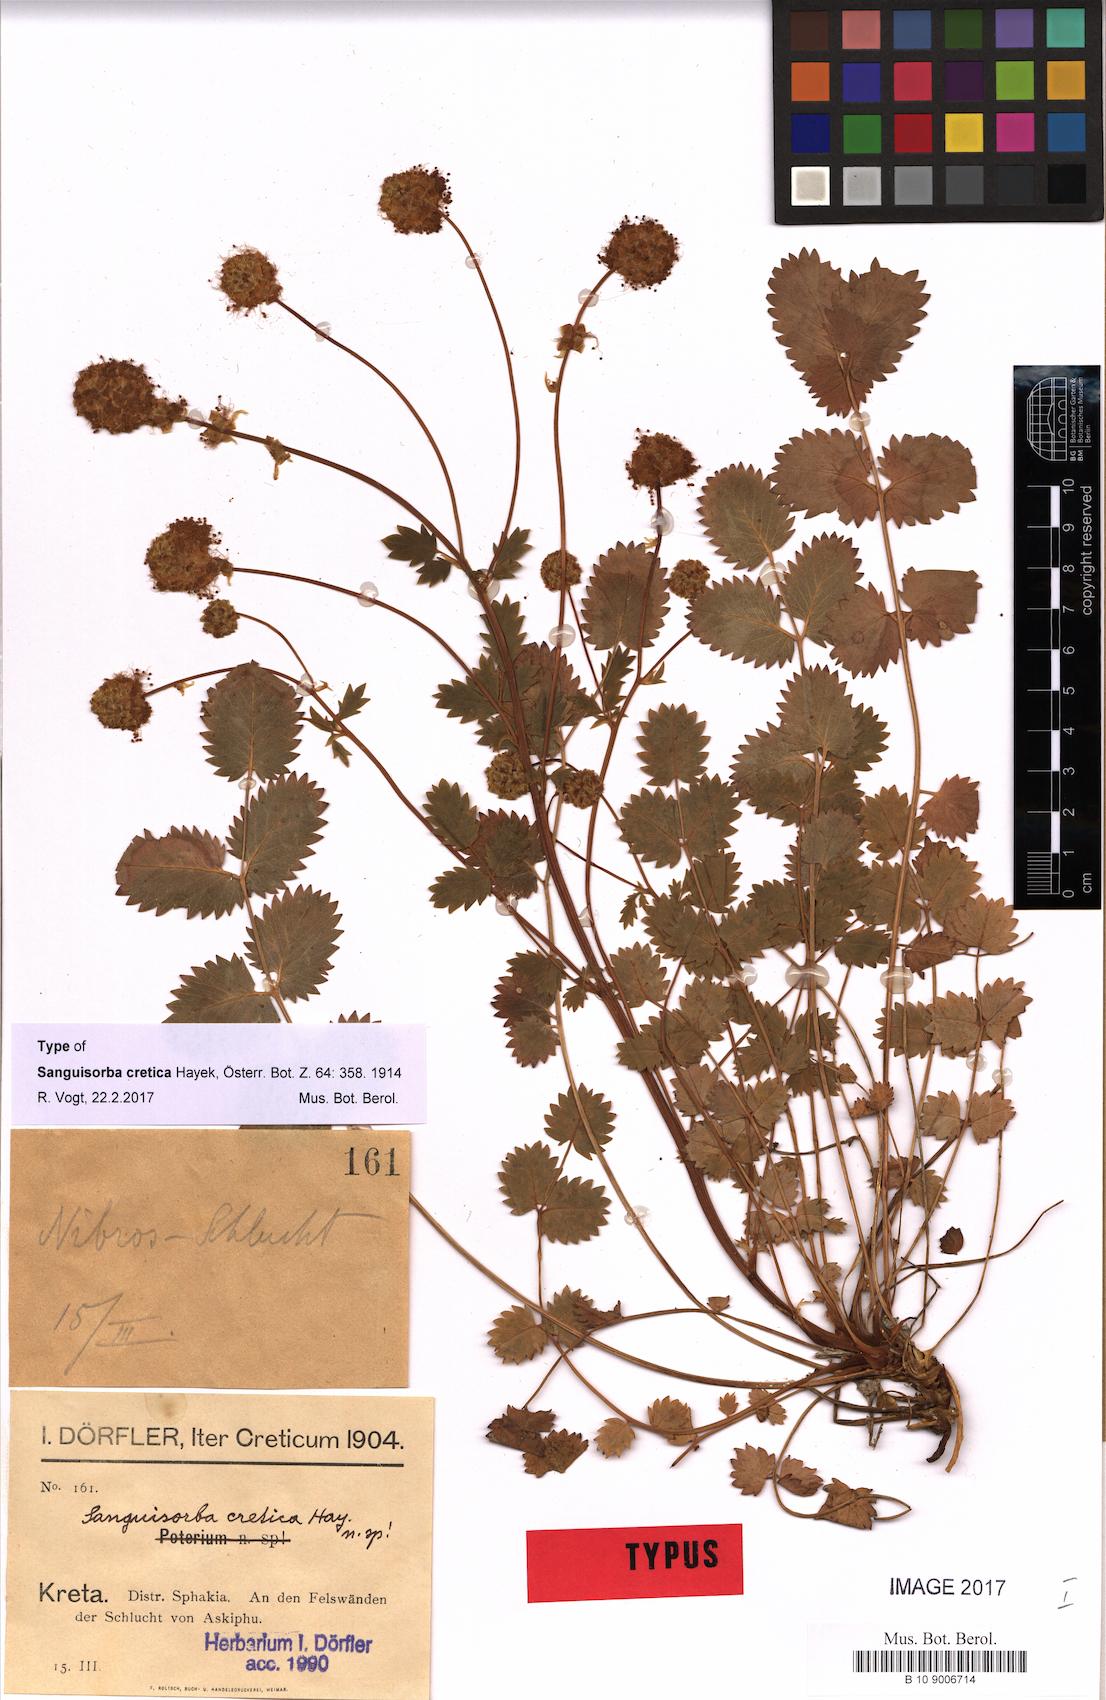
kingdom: Plantae
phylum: Tracheophyta
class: Magnoliopsida
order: Rosales
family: Rosaceae
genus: Poterium
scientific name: Poterium creticum
